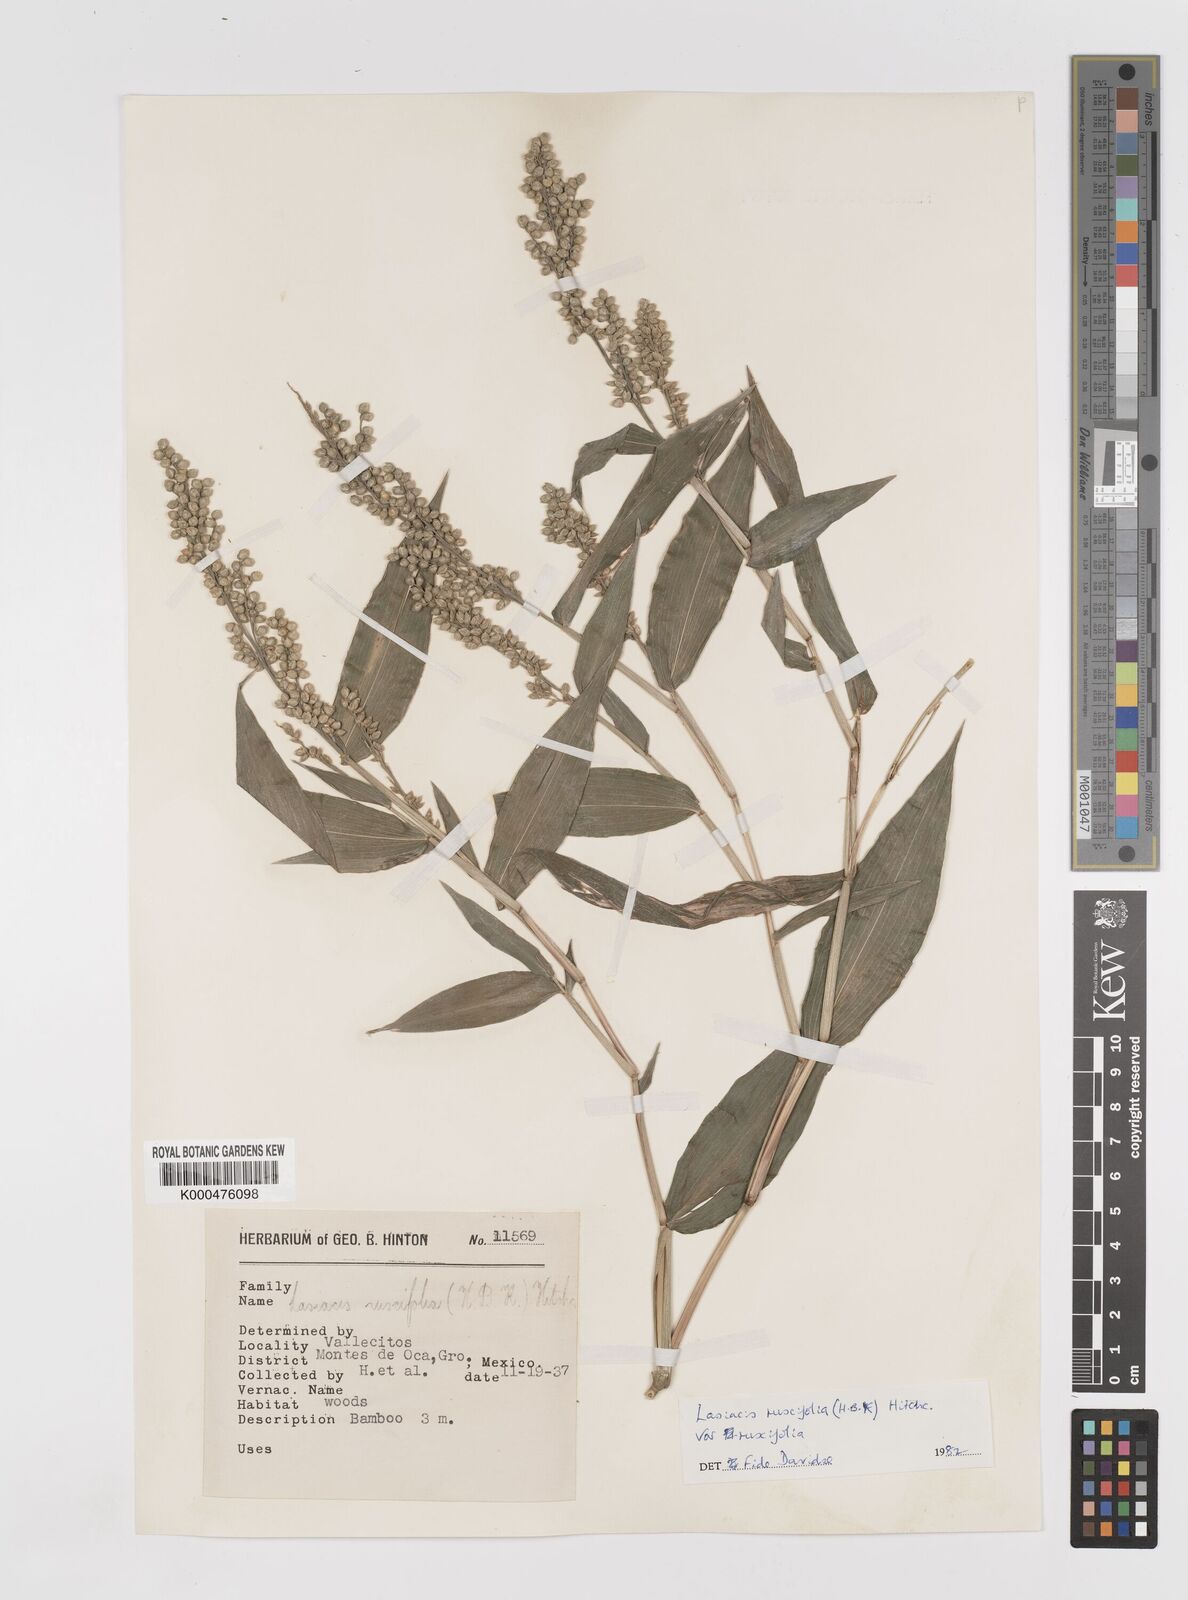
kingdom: Plantae
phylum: Tracheophyta
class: Liliopsida
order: Poales
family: Poaceae
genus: Lasiacis
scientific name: Lasiacis ruscifolia
